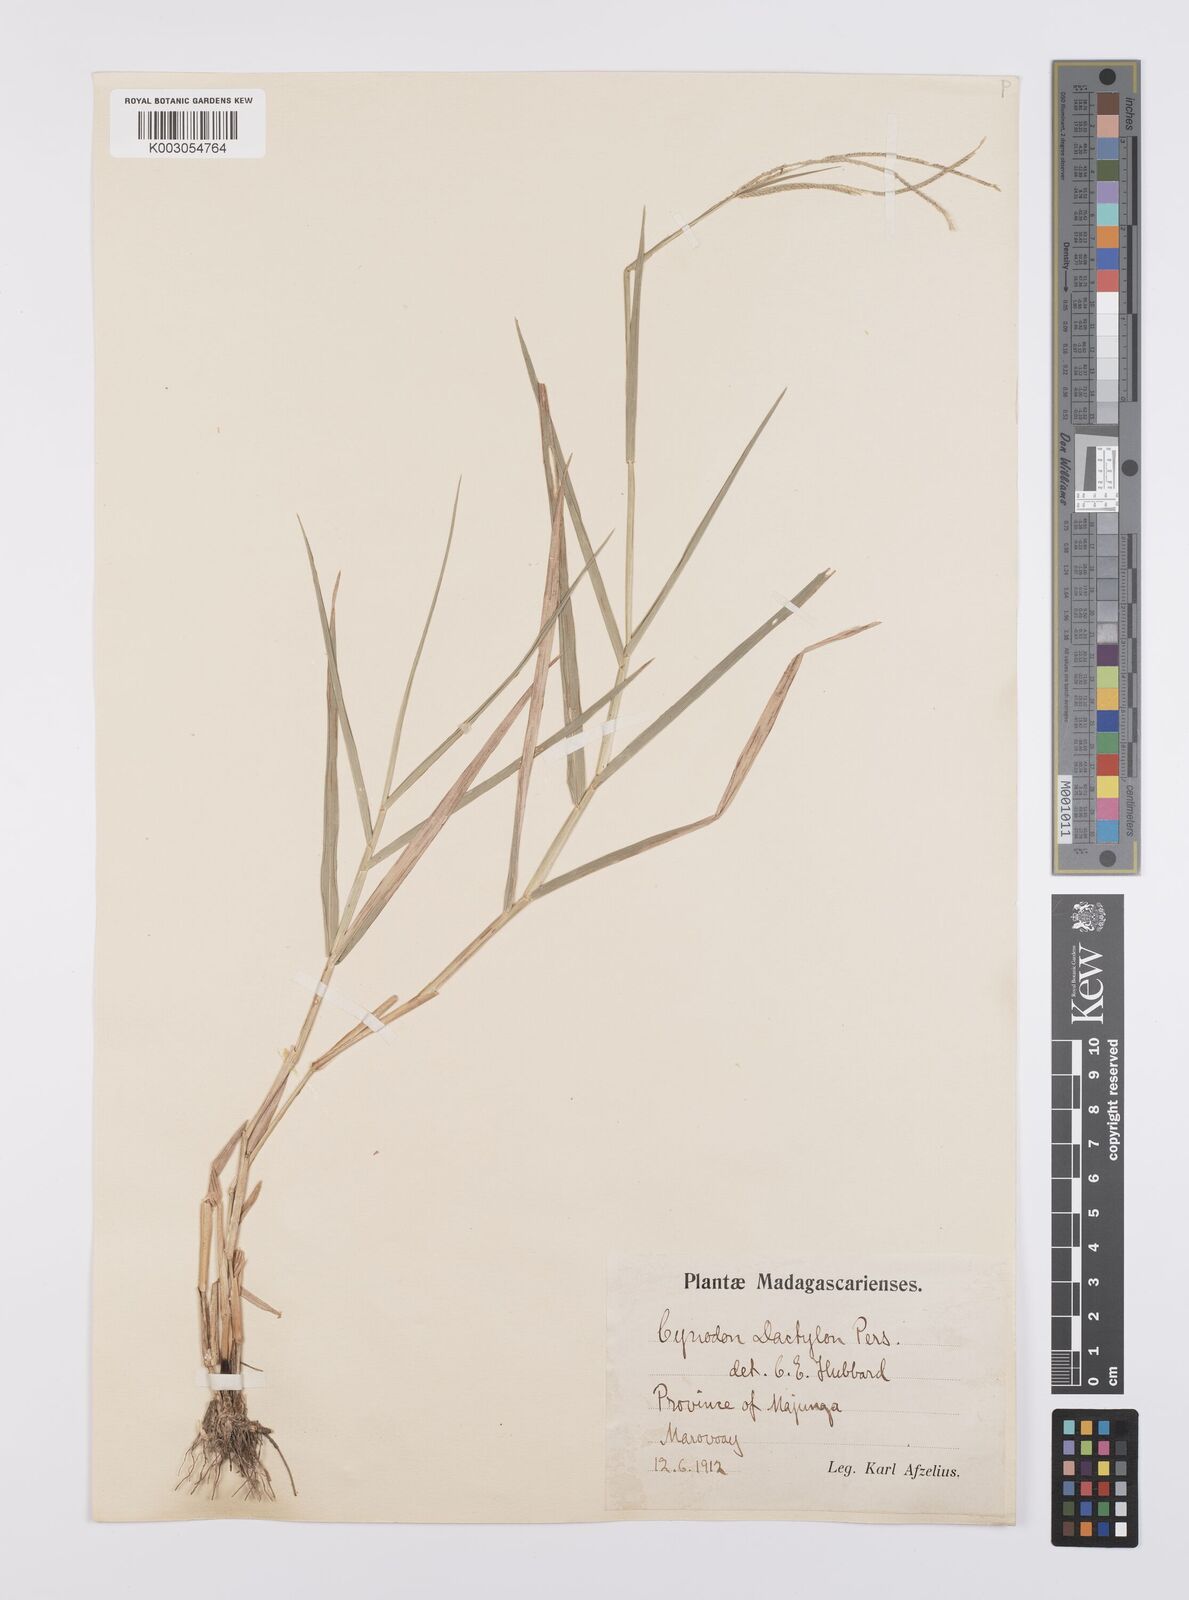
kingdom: Plantae
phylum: Tracheophyta
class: Liliopsida
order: Poales
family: Poaceae
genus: Cynodon
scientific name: Cynodon dactylon
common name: Bermuda grass
